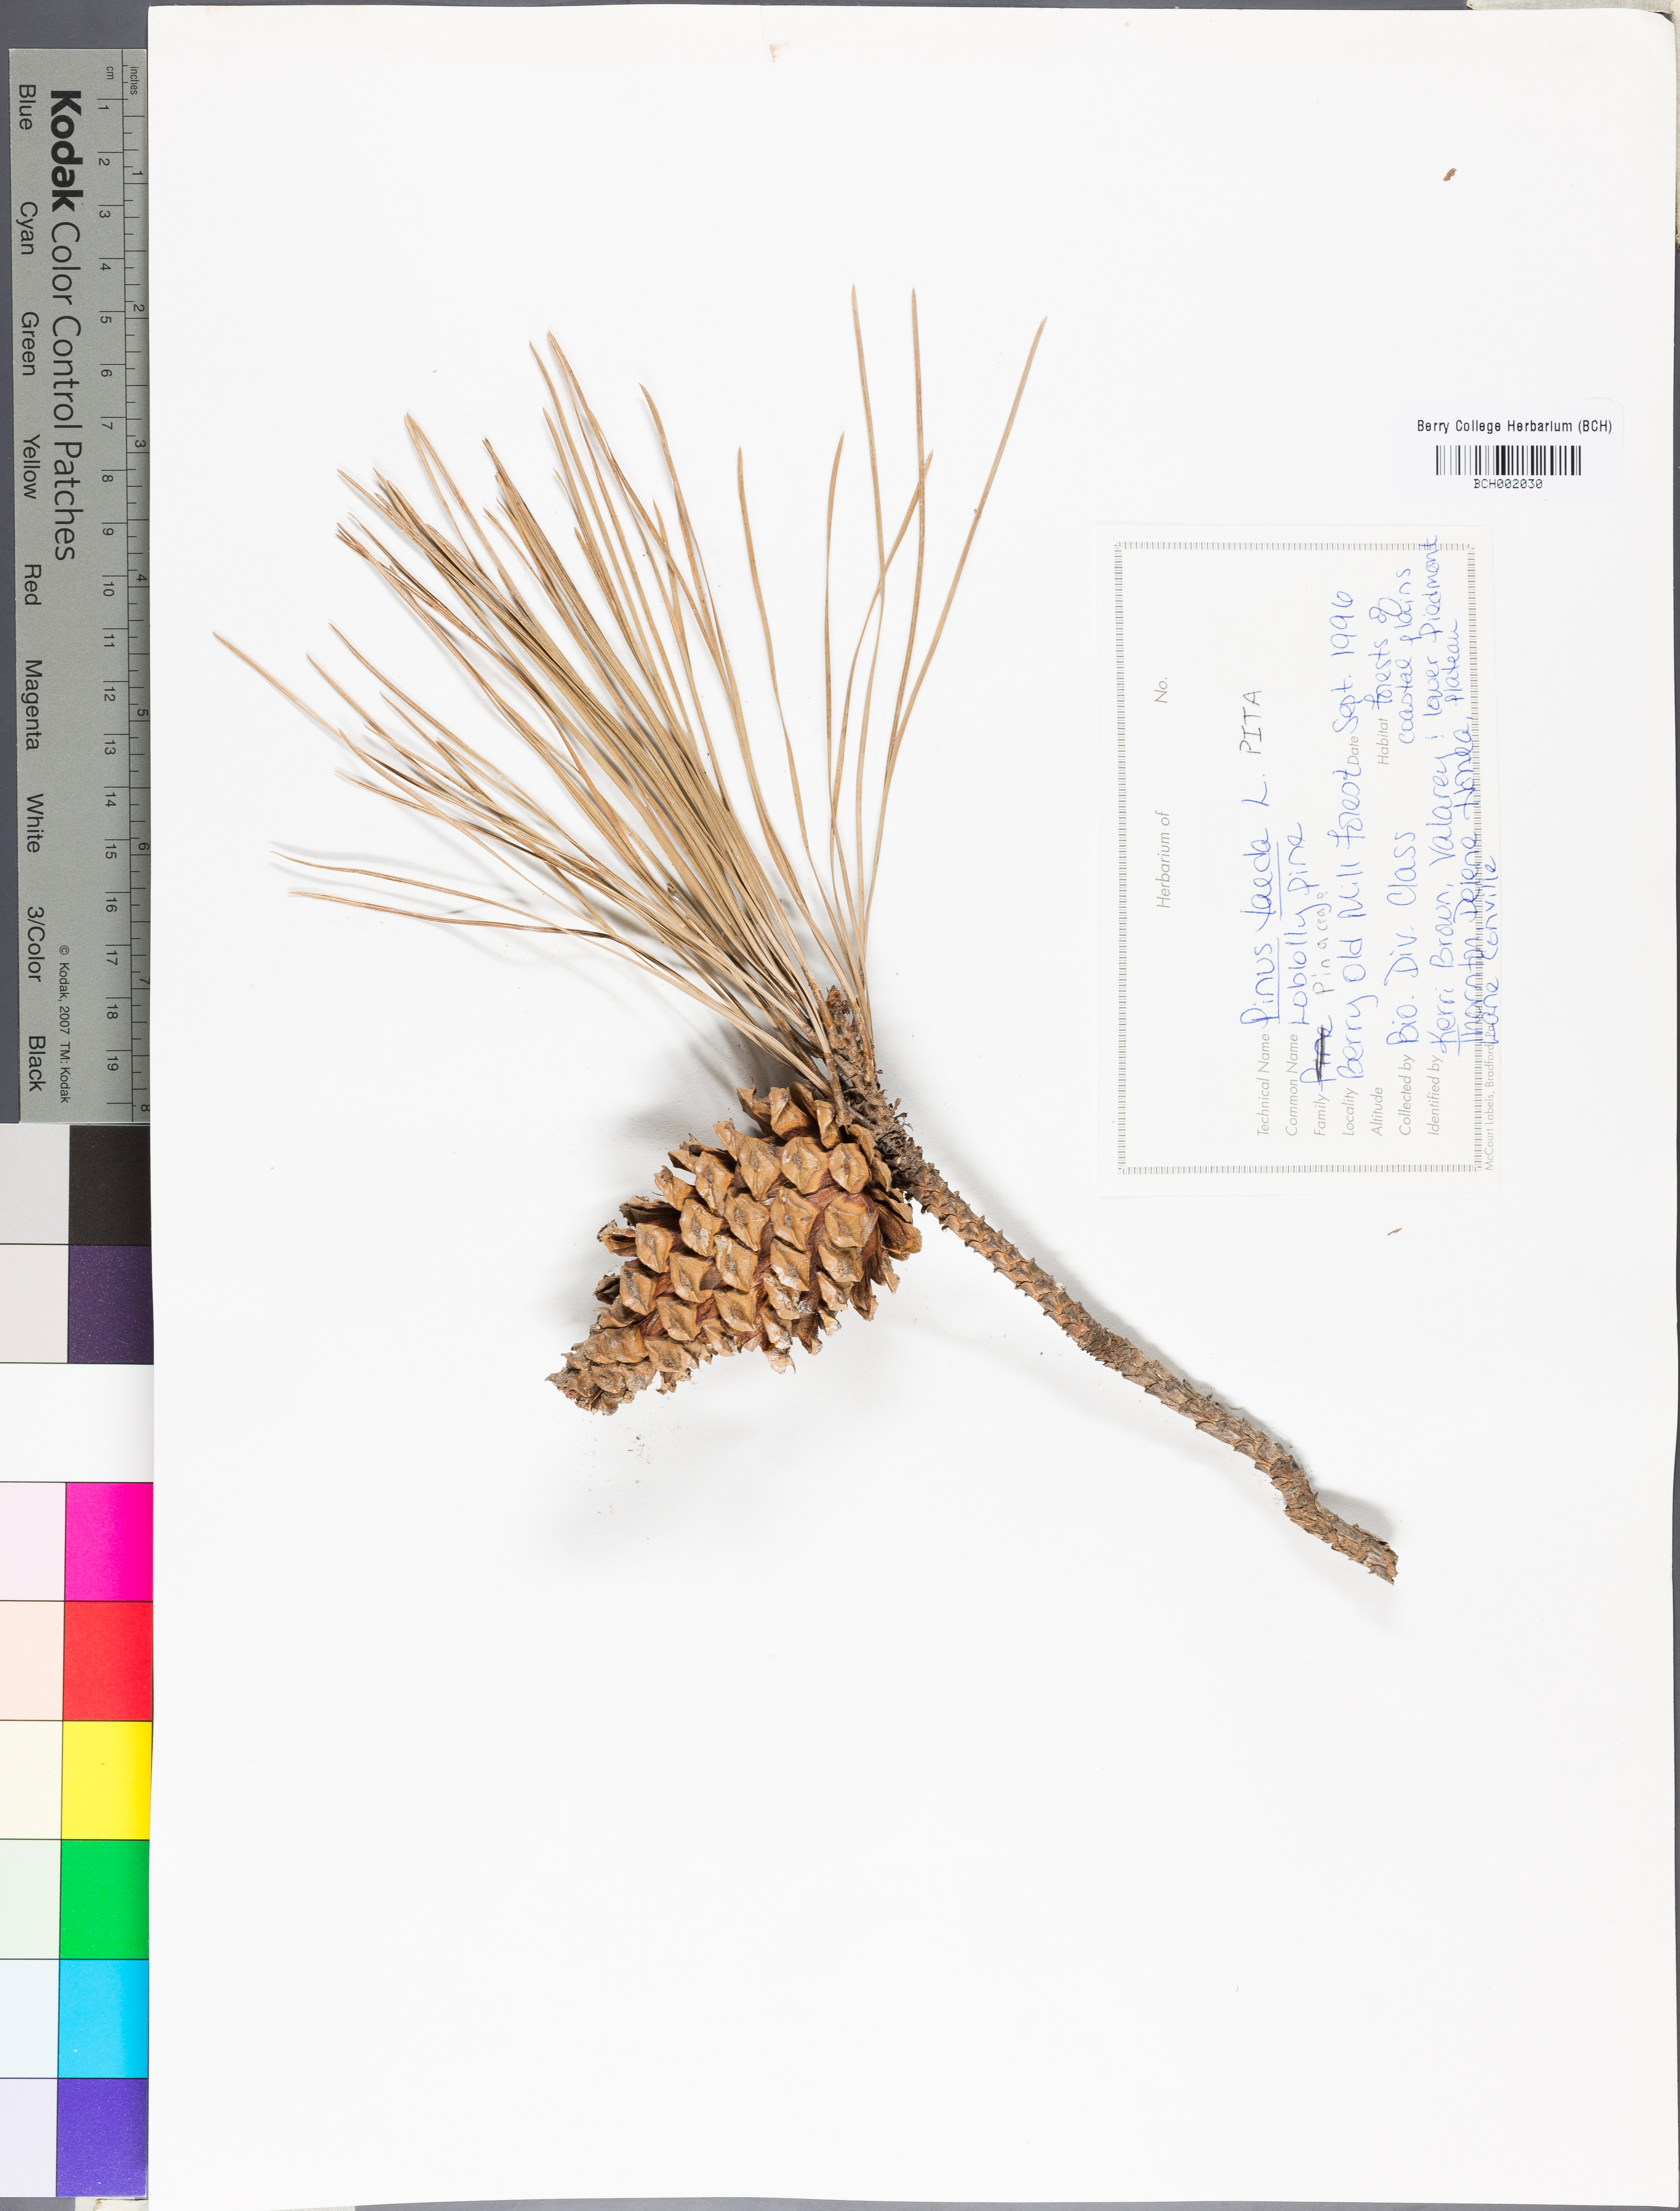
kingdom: Plantae
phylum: Tracheophyta
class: Pinopsida
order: Pinales
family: Pinaceae
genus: Pinus
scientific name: Pinus taeda
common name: Loblolly pine
